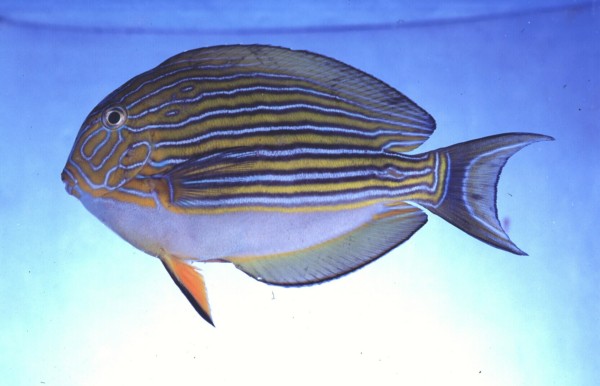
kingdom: Animalia
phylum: Chordata
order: Perciformes
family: Acanthuridae
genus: Acanthurus
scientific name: Acanthurus lineatus
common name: Striped surgeonfish
